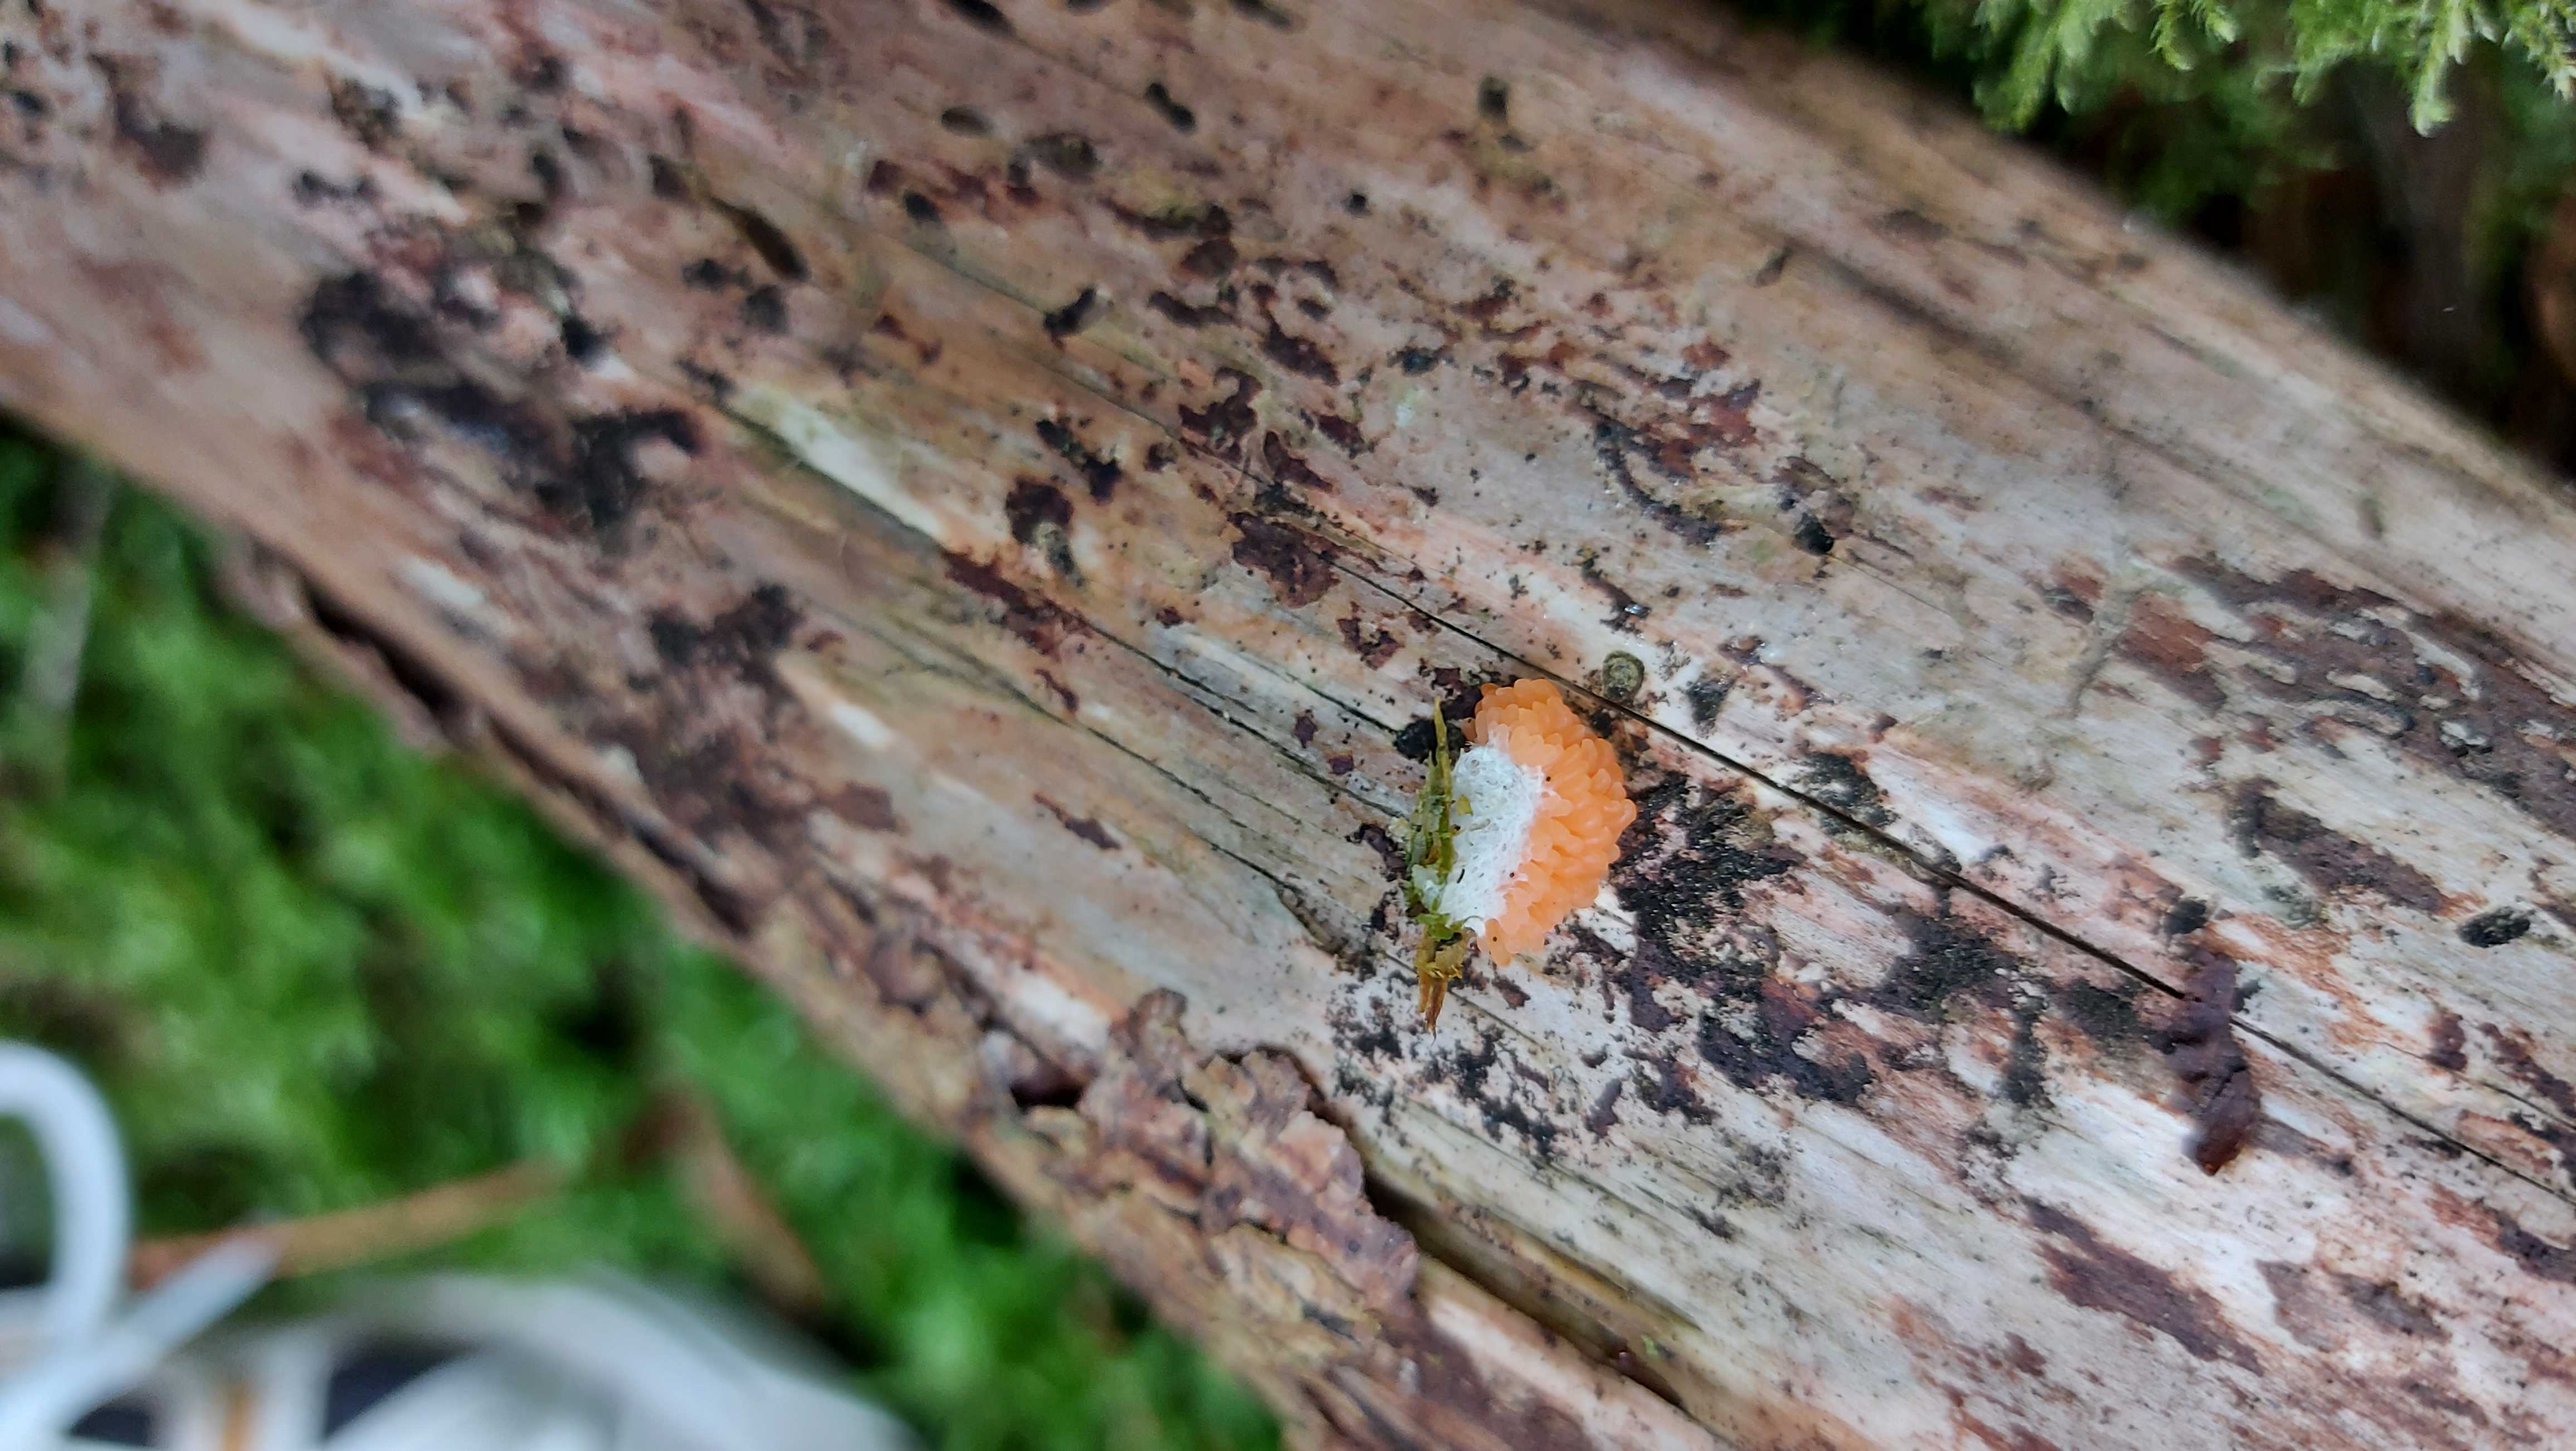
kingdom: Protozoa
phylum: Mycetozoa
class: Myxomycetes
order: Cribrariales
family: Tubiferaceae
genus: Tubifera
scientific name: Tubifera ferruginosa
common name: kanel-støvrør
